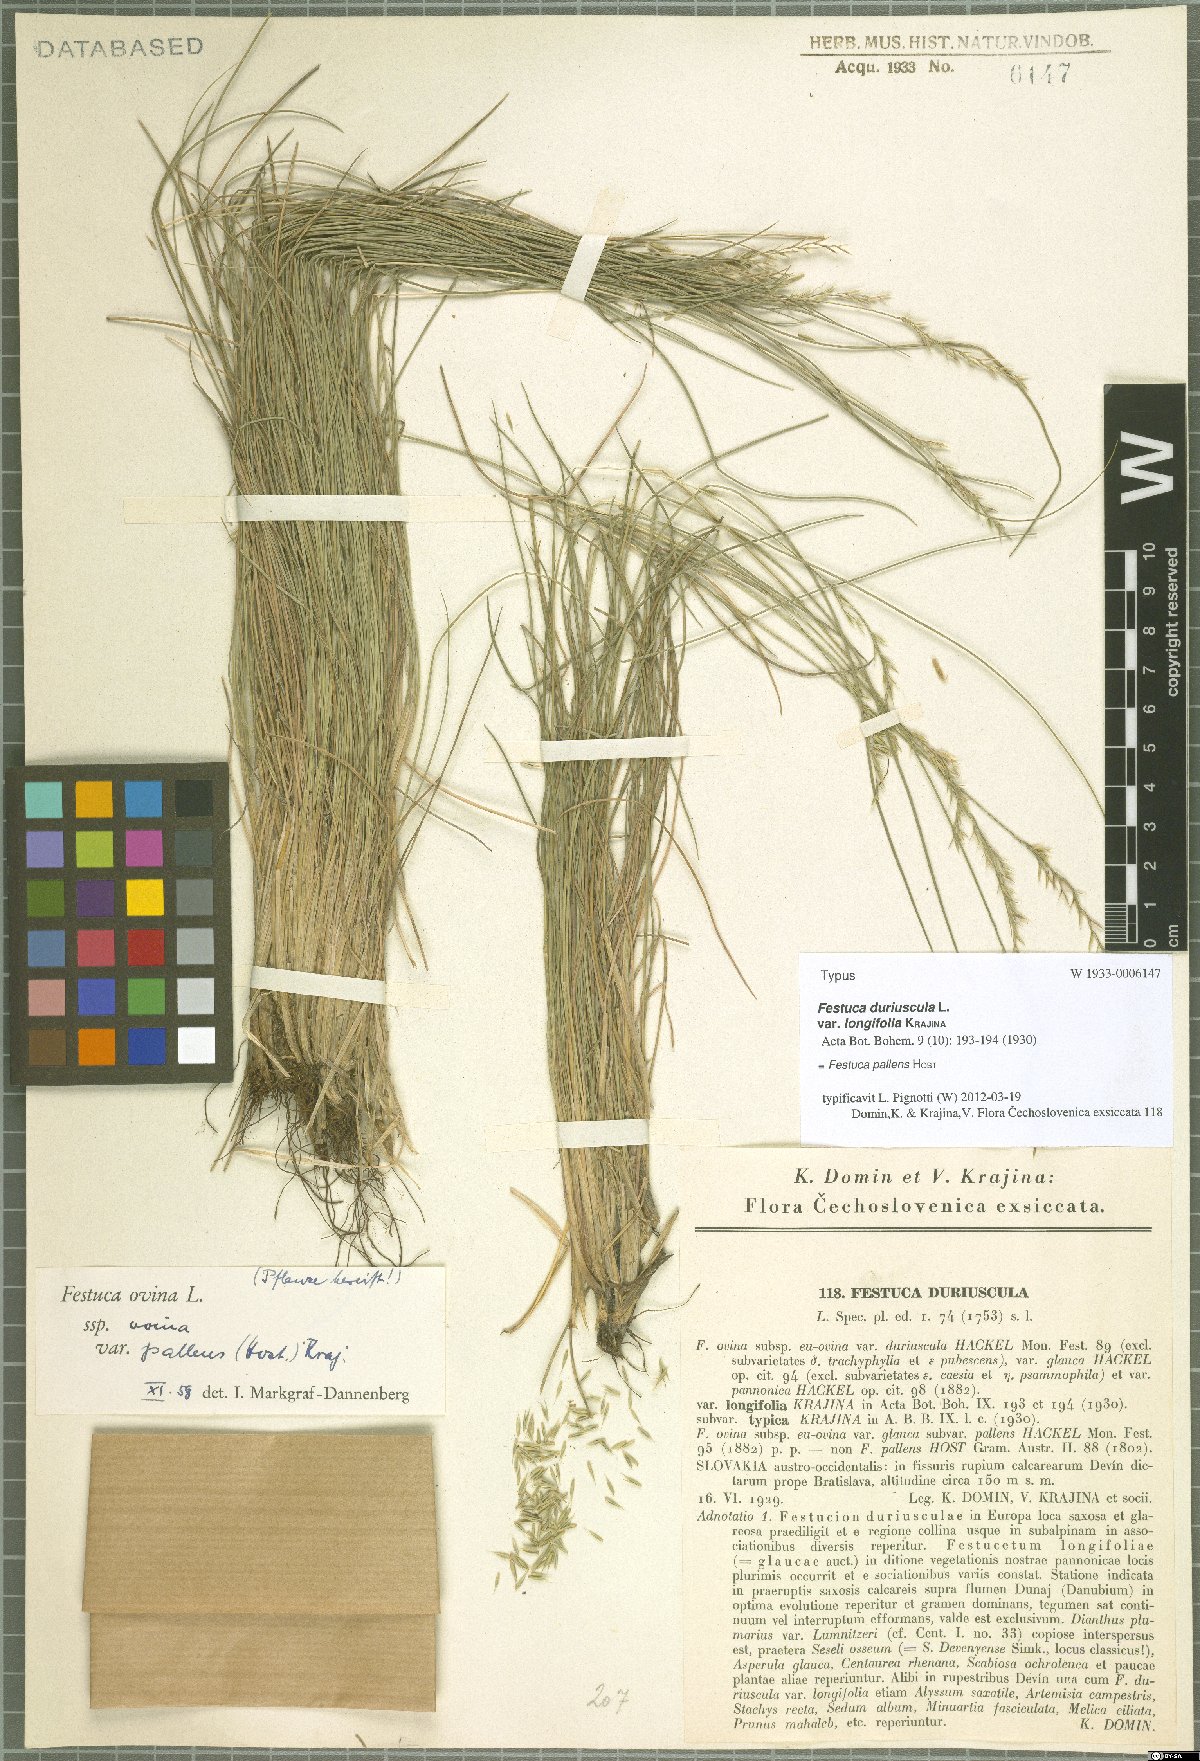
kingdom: Plantae
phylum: Tracheophyta
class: Liliopsida
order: Poales
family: Poaceae
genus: Festuca
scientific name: Festuca pallens
